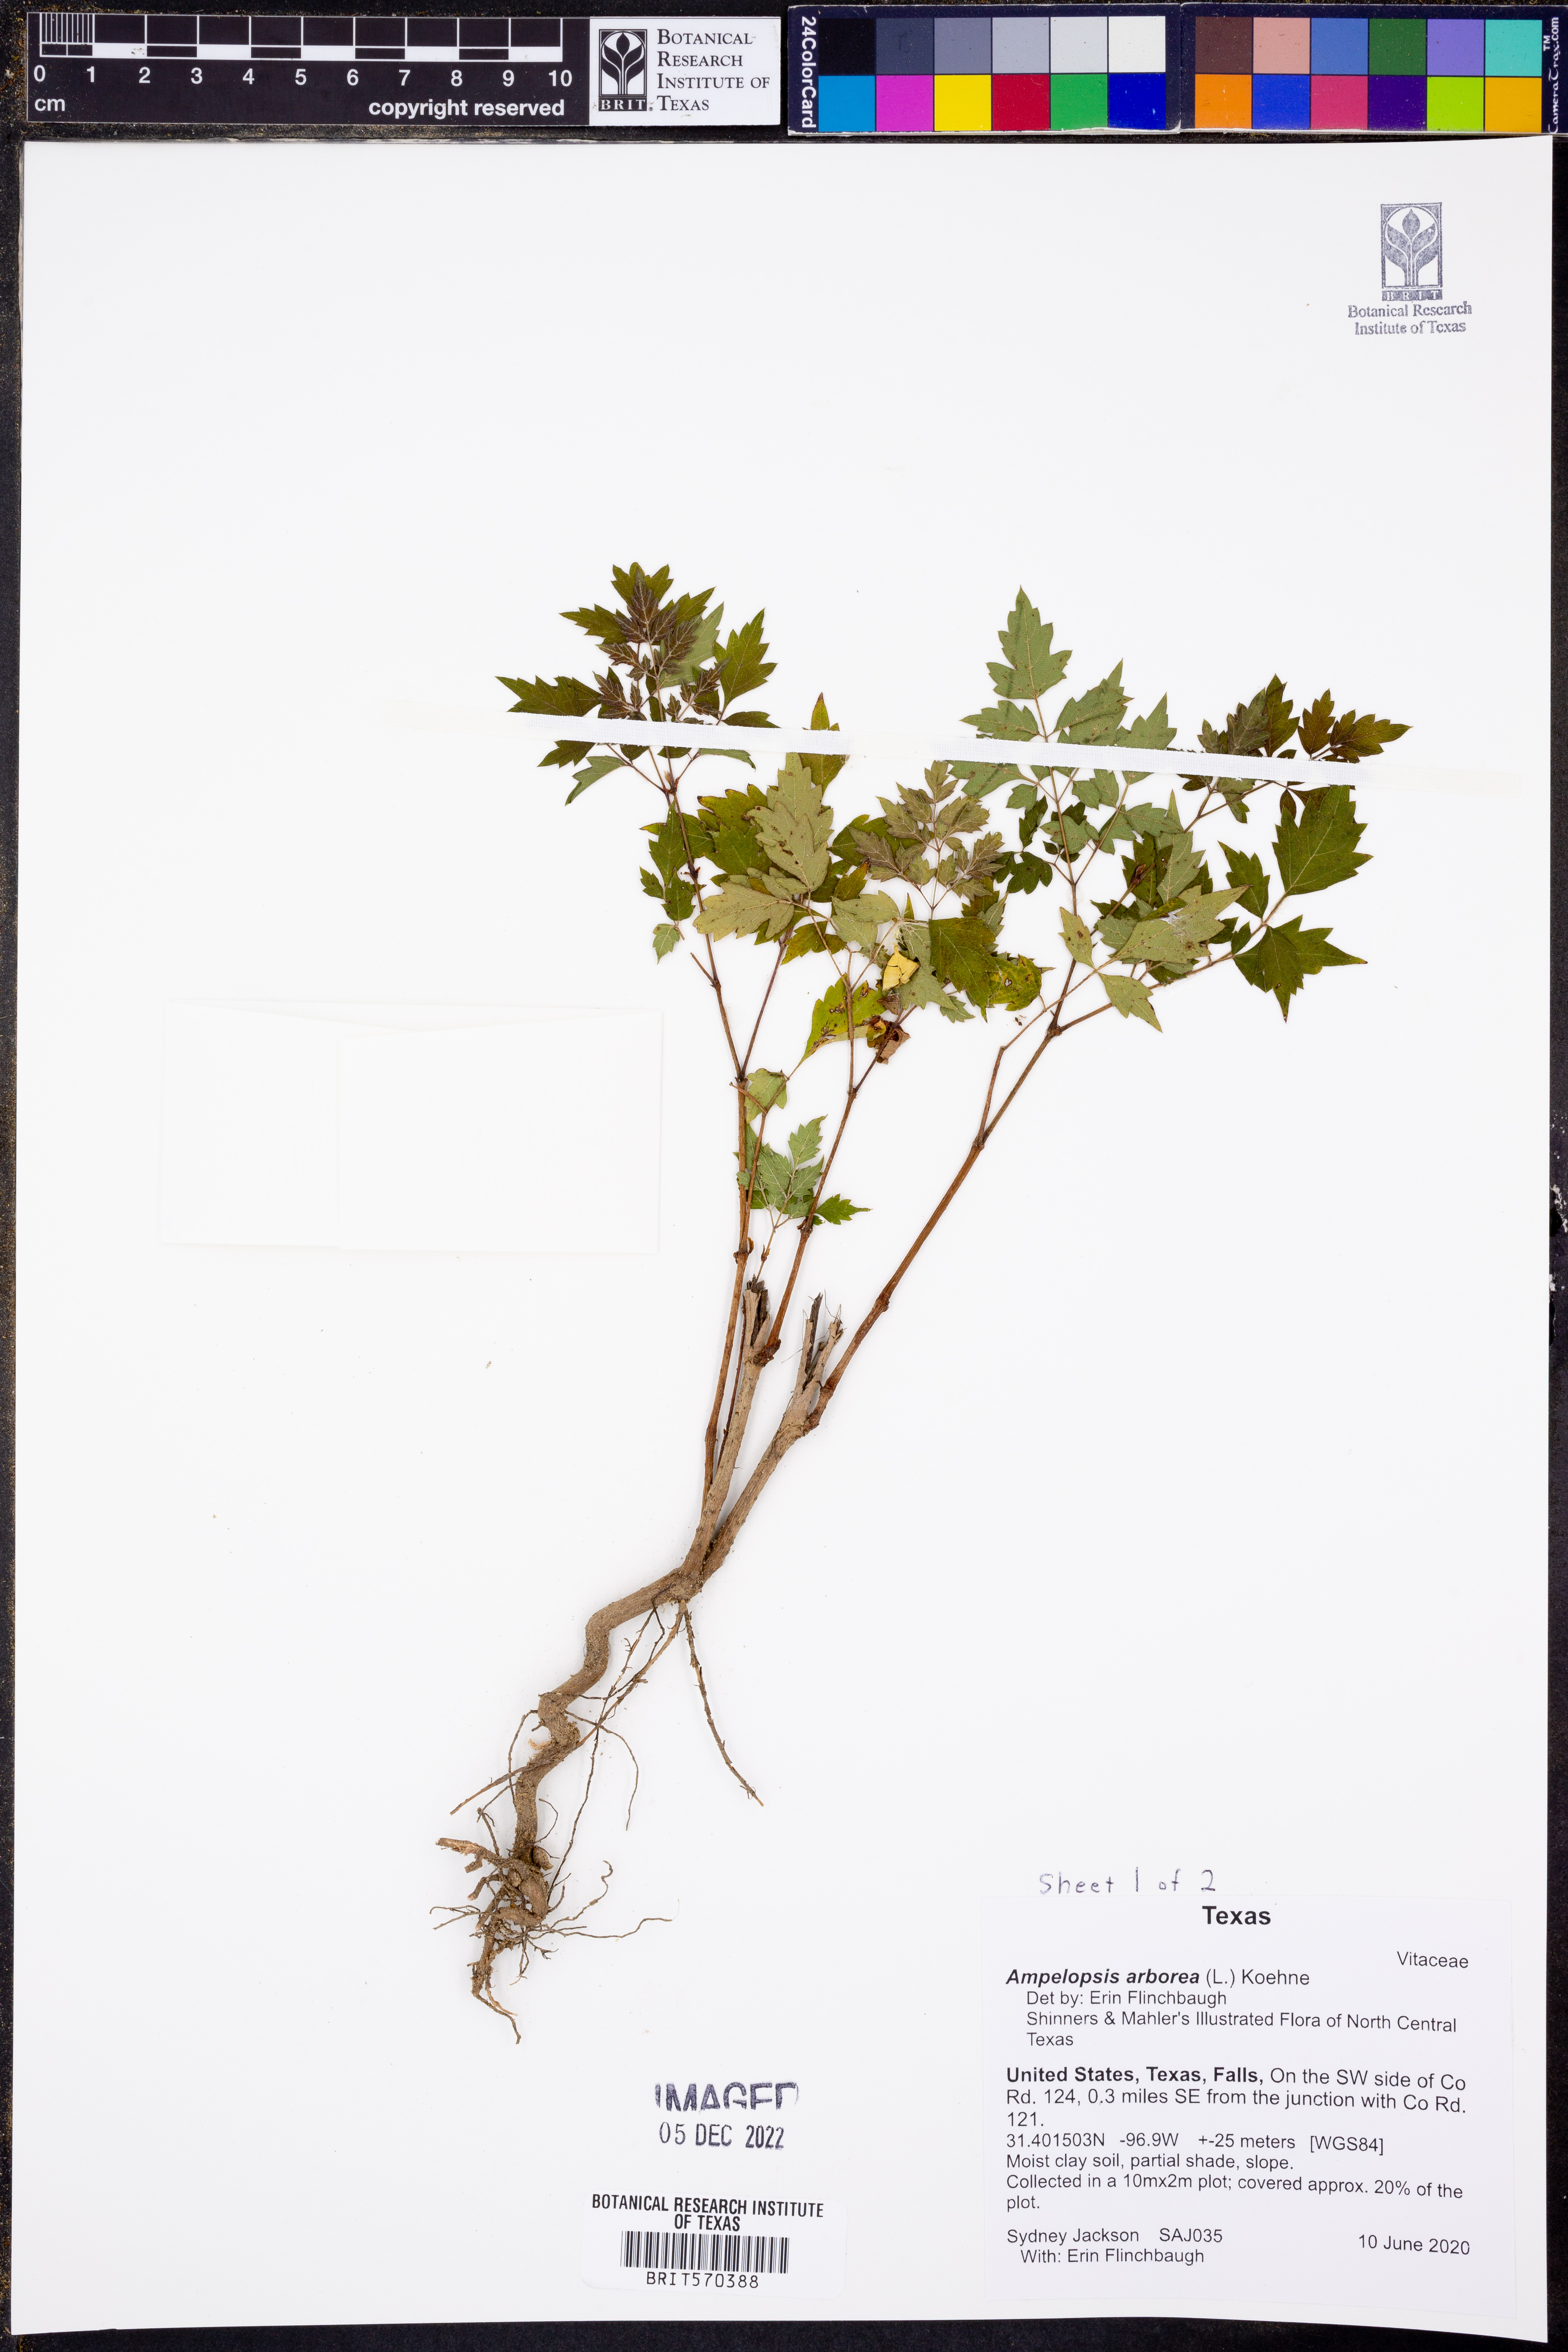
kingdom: Plantae
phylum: Tracheophyta
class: Magnoliopsida
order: Vitales
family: Vitaceae
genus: Nekemias
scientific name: Nekemias arborea
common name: Peppervine
